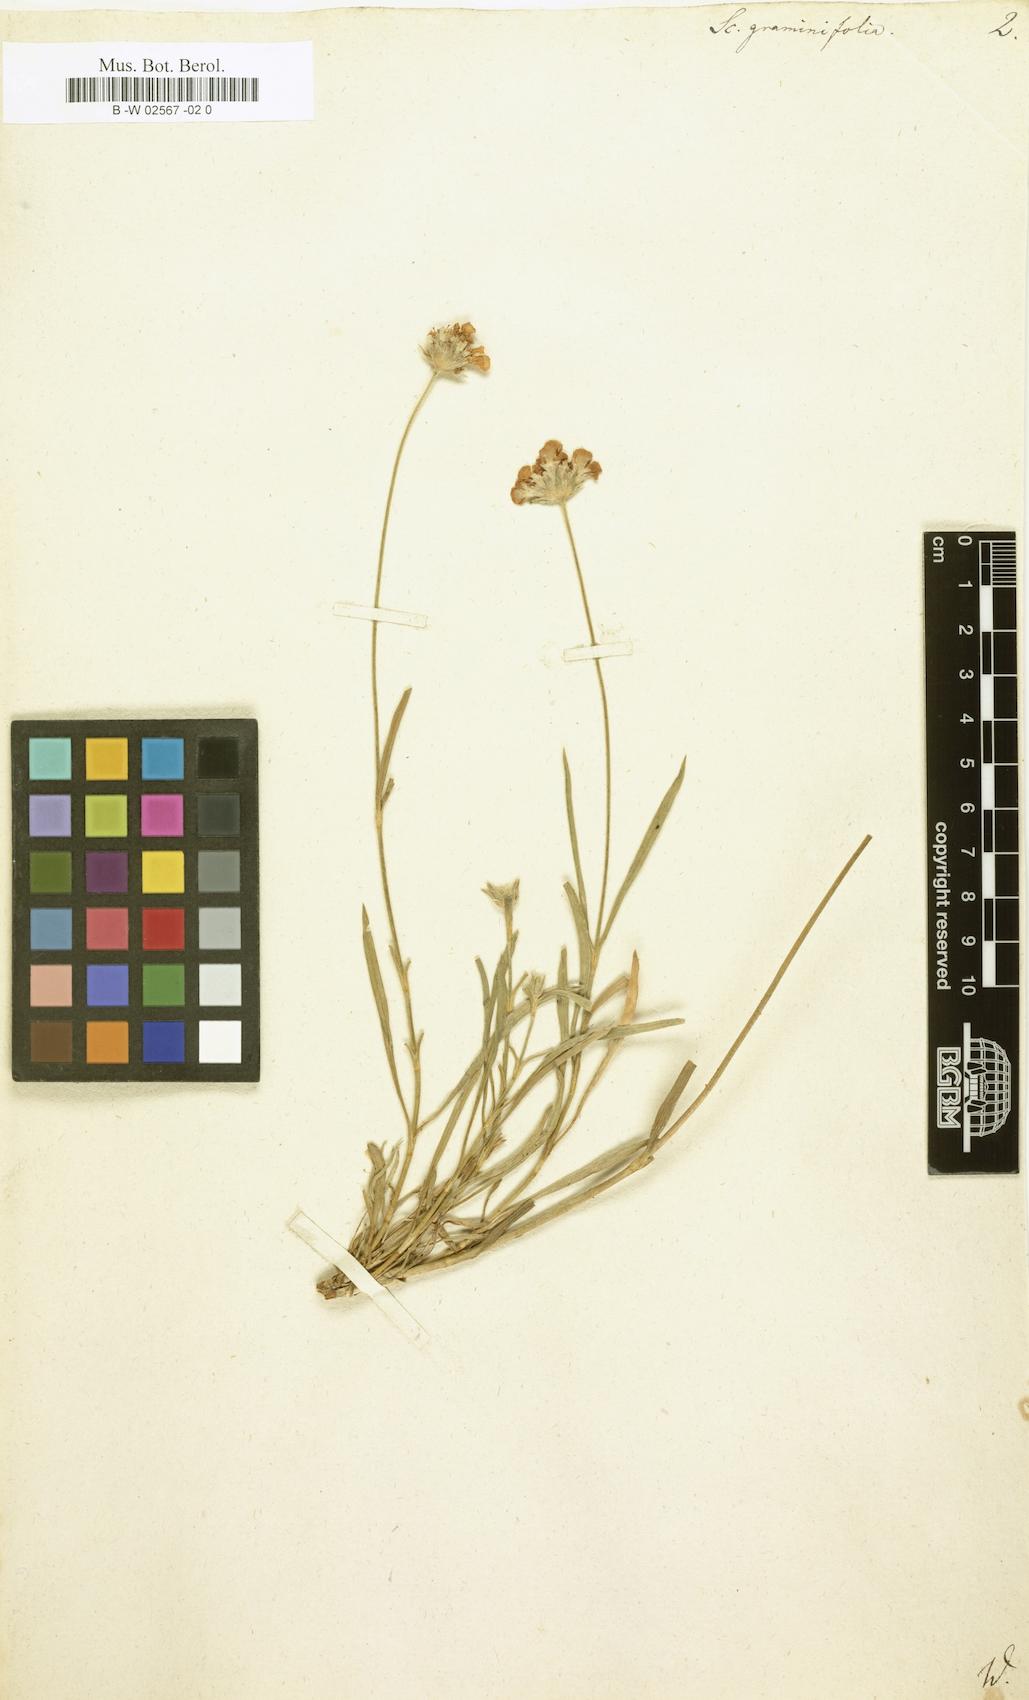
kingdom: Plantae
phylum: Tracheophyta
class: Magnoliopsida
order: Dipsacales
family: Caprifoliaceae
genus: Lomelosia
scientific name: Lomelosia graminifolia
